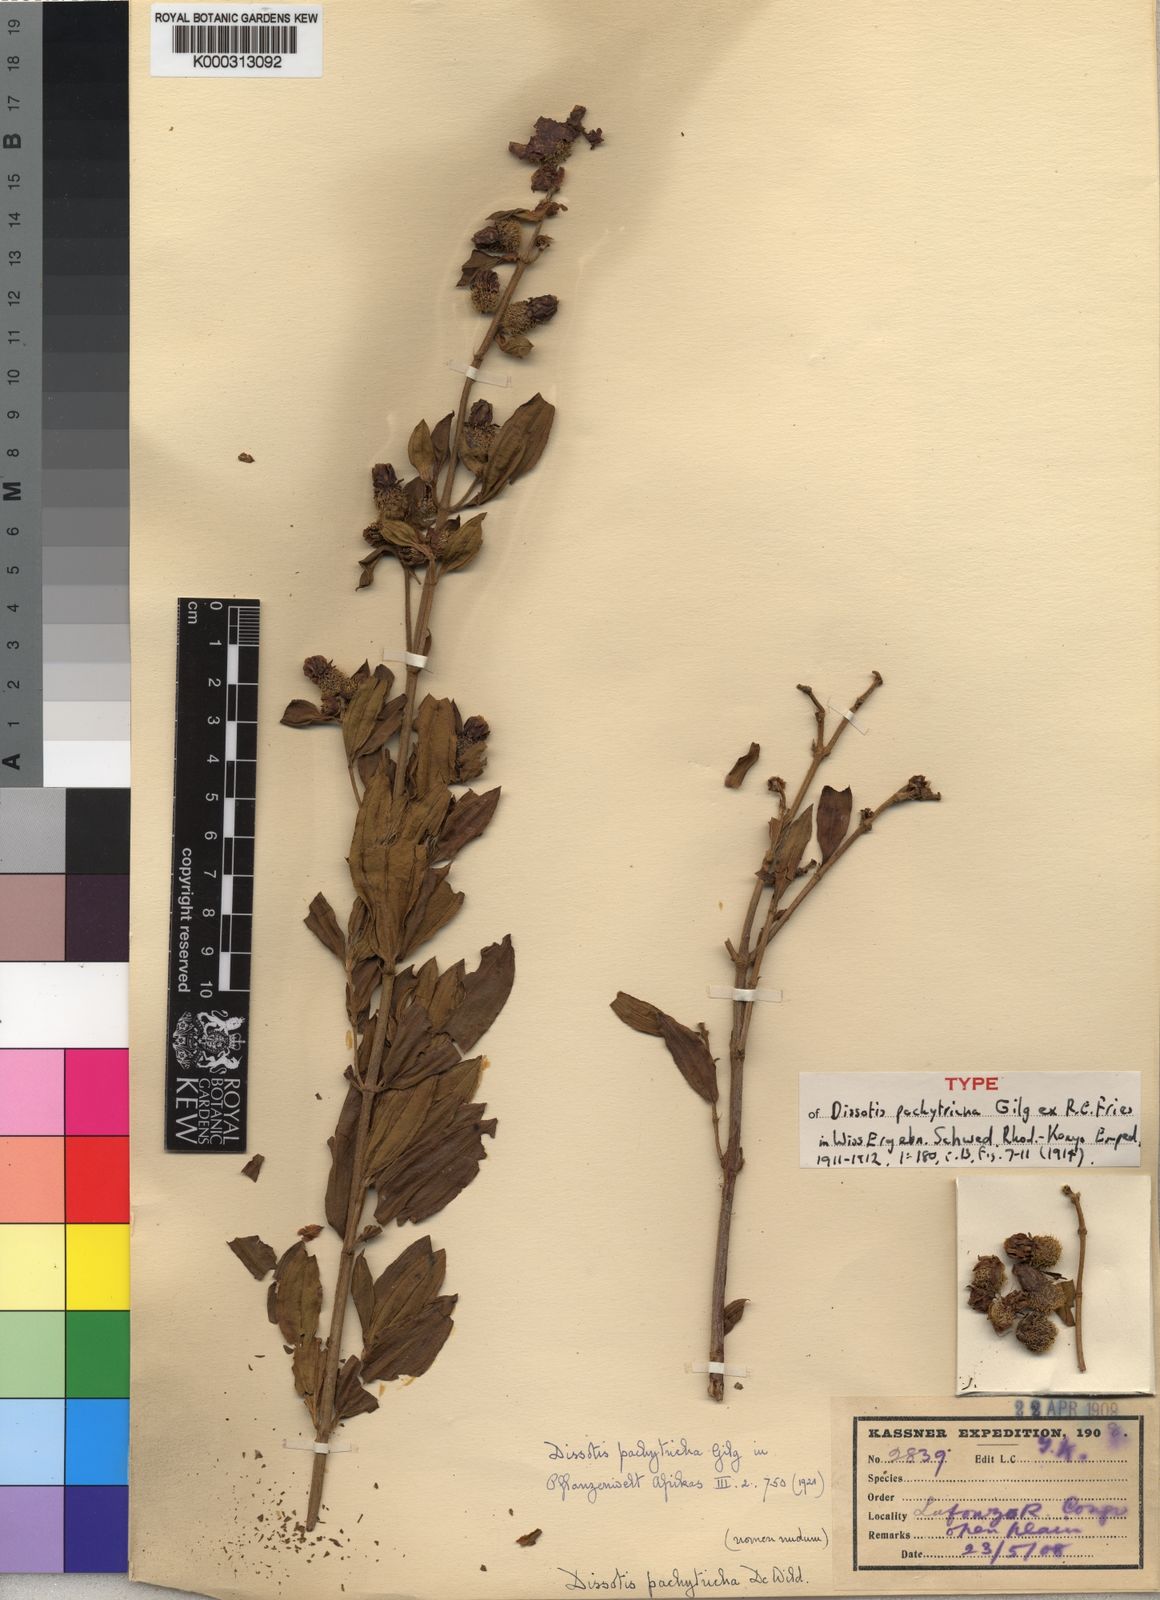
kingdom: Plantae
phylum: Tracheophyta
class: Magnoliopsida
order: Myrtales
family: Melastomataceae
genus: Dissotis
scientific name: Dissotis
